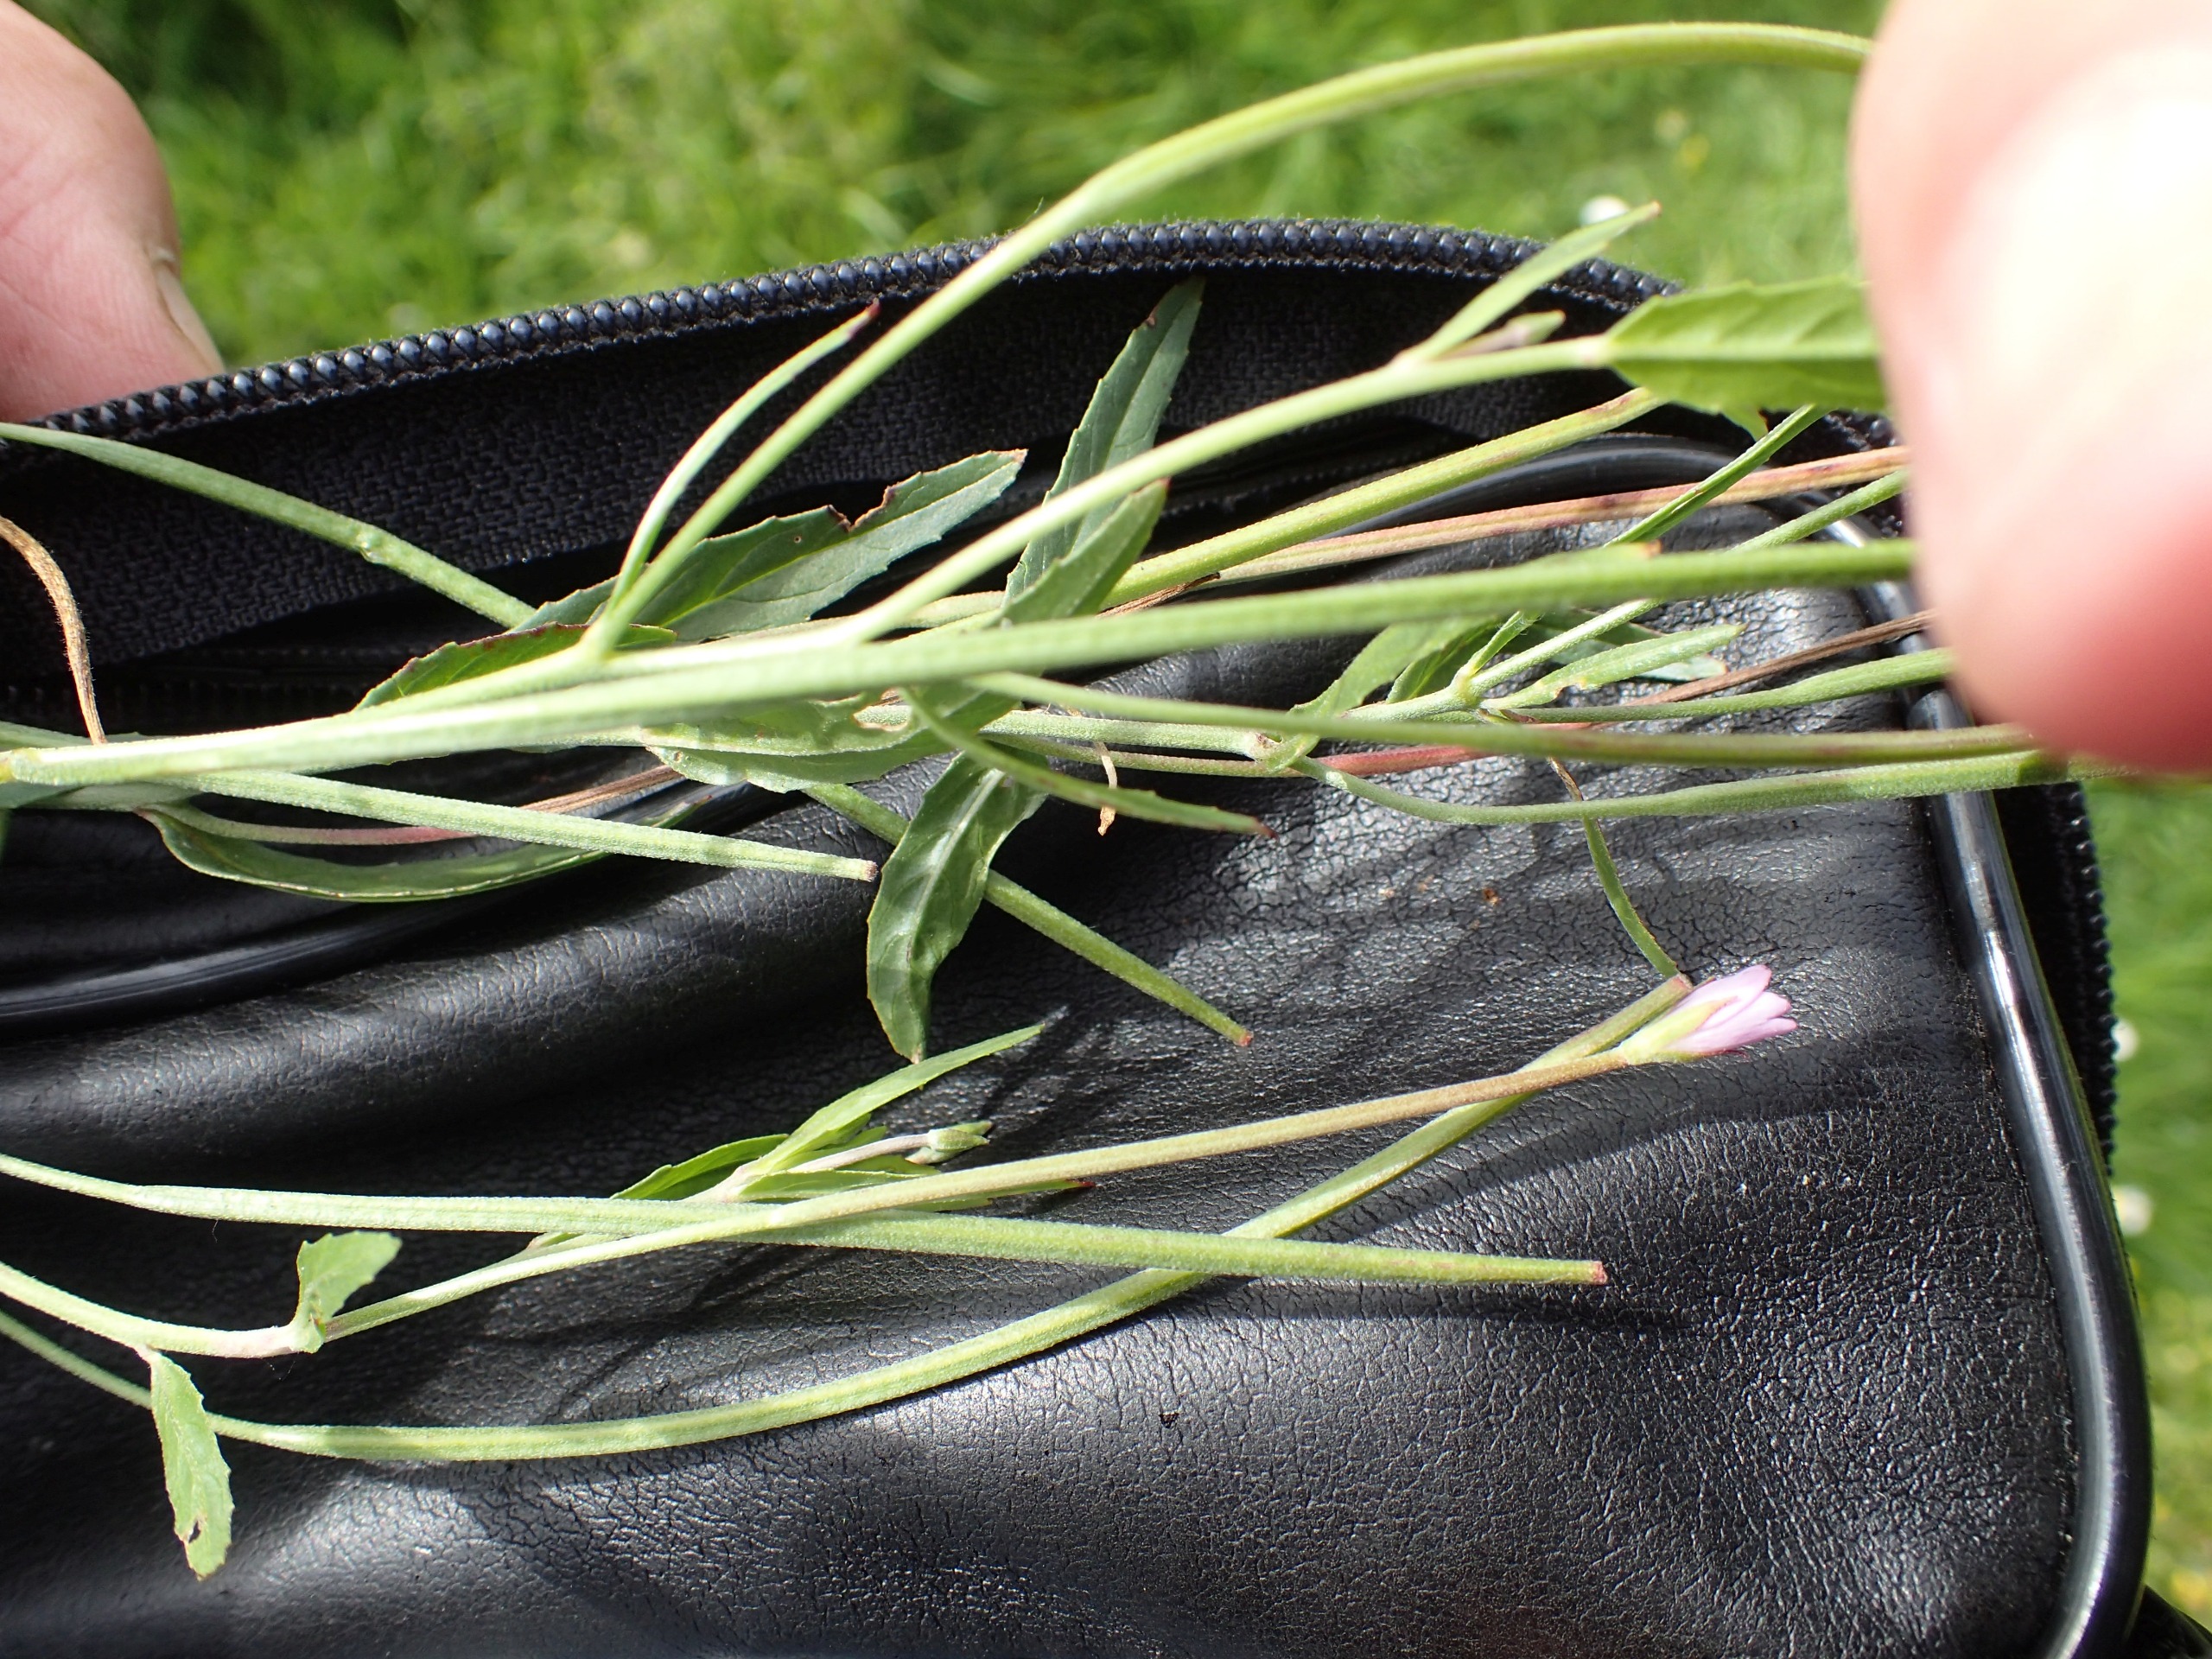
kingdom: Plantae
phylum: Tracheophyta
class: Magnoliopsida
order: Myrtales
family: Onagraceae
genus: Epilobium
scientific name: Epilobium tetragonum
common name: Kantet dueurt
